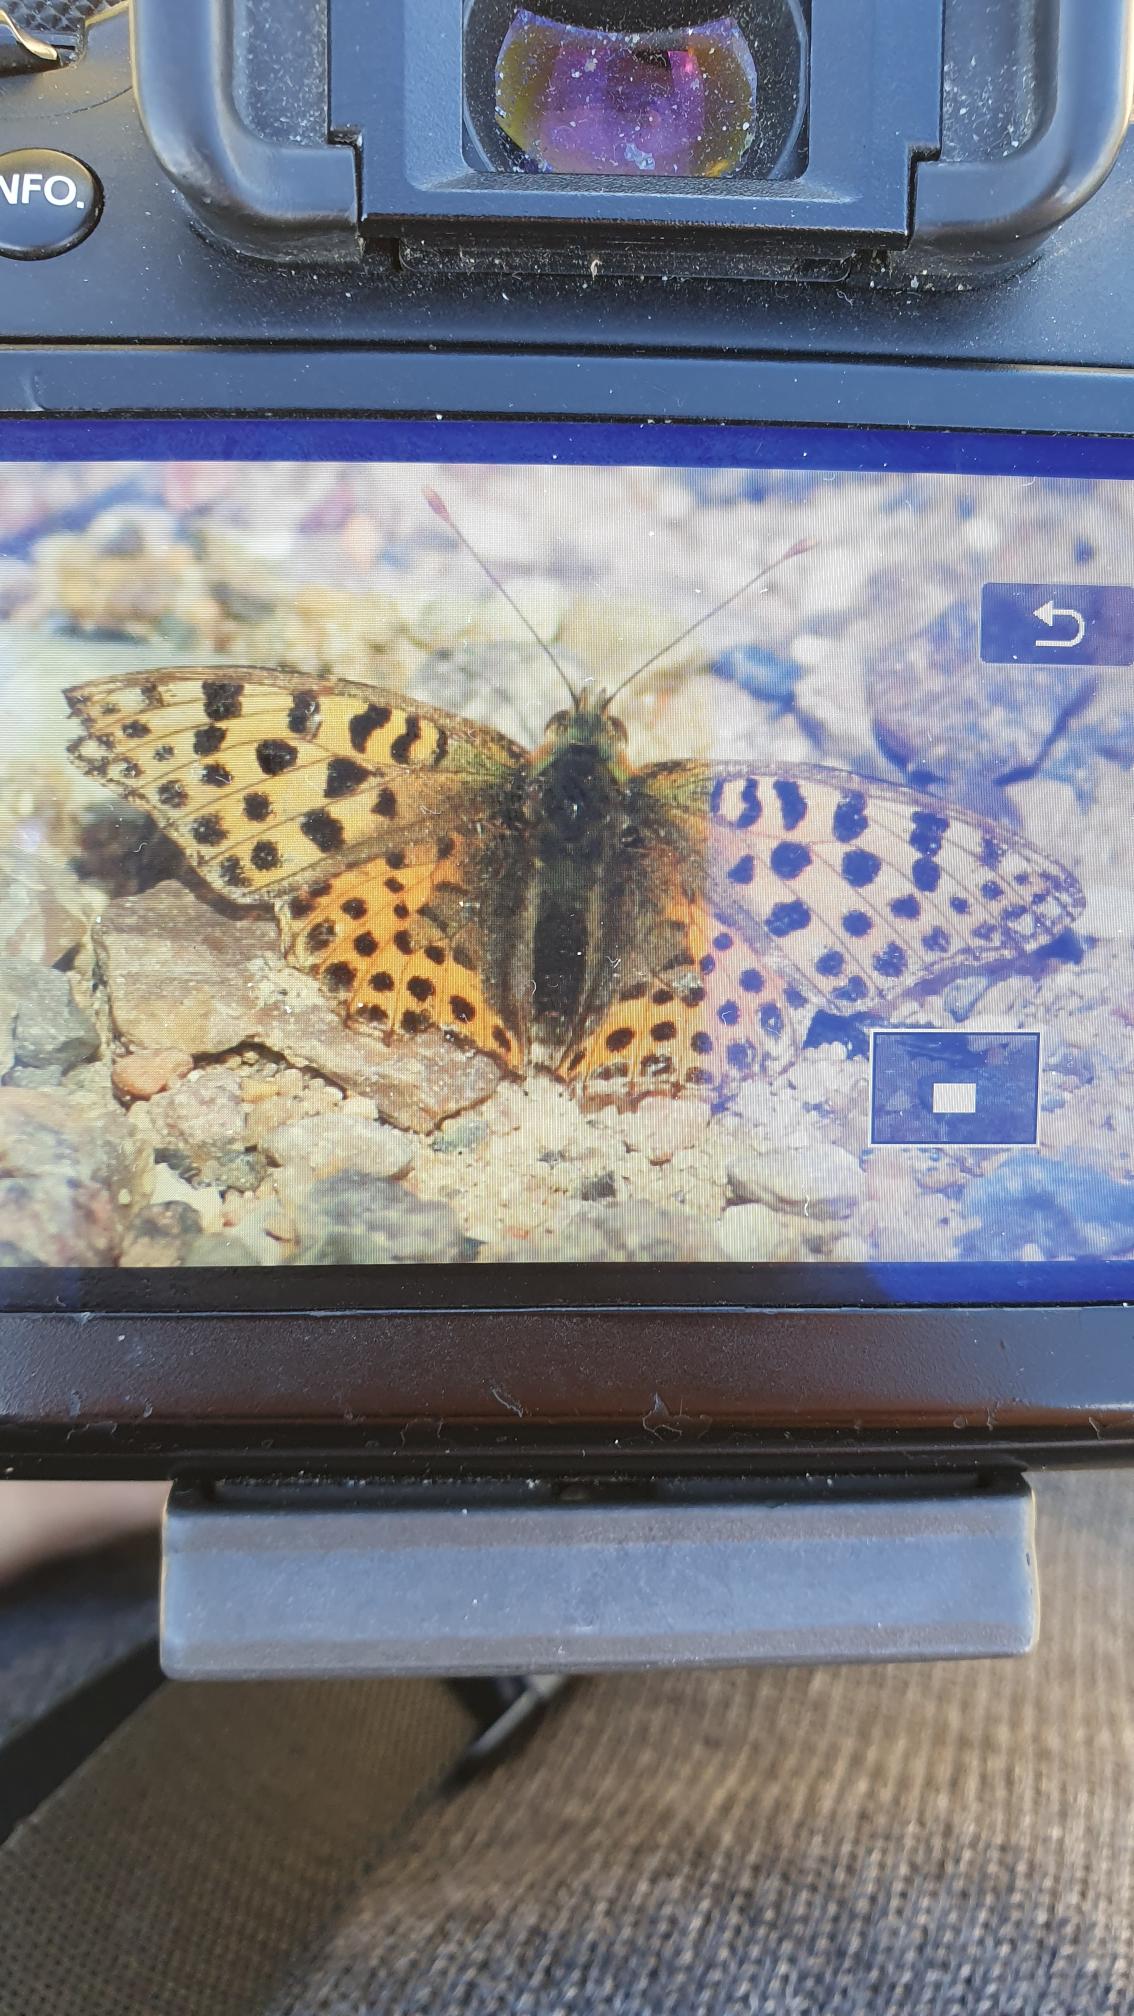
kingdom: Animalia
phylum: Arthropoda
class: Insecta
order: Lepidoptera
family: Nymphalidae
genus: Issoria
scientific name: Issoria lathonia
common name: Storplettet perlemorsommerfugl
